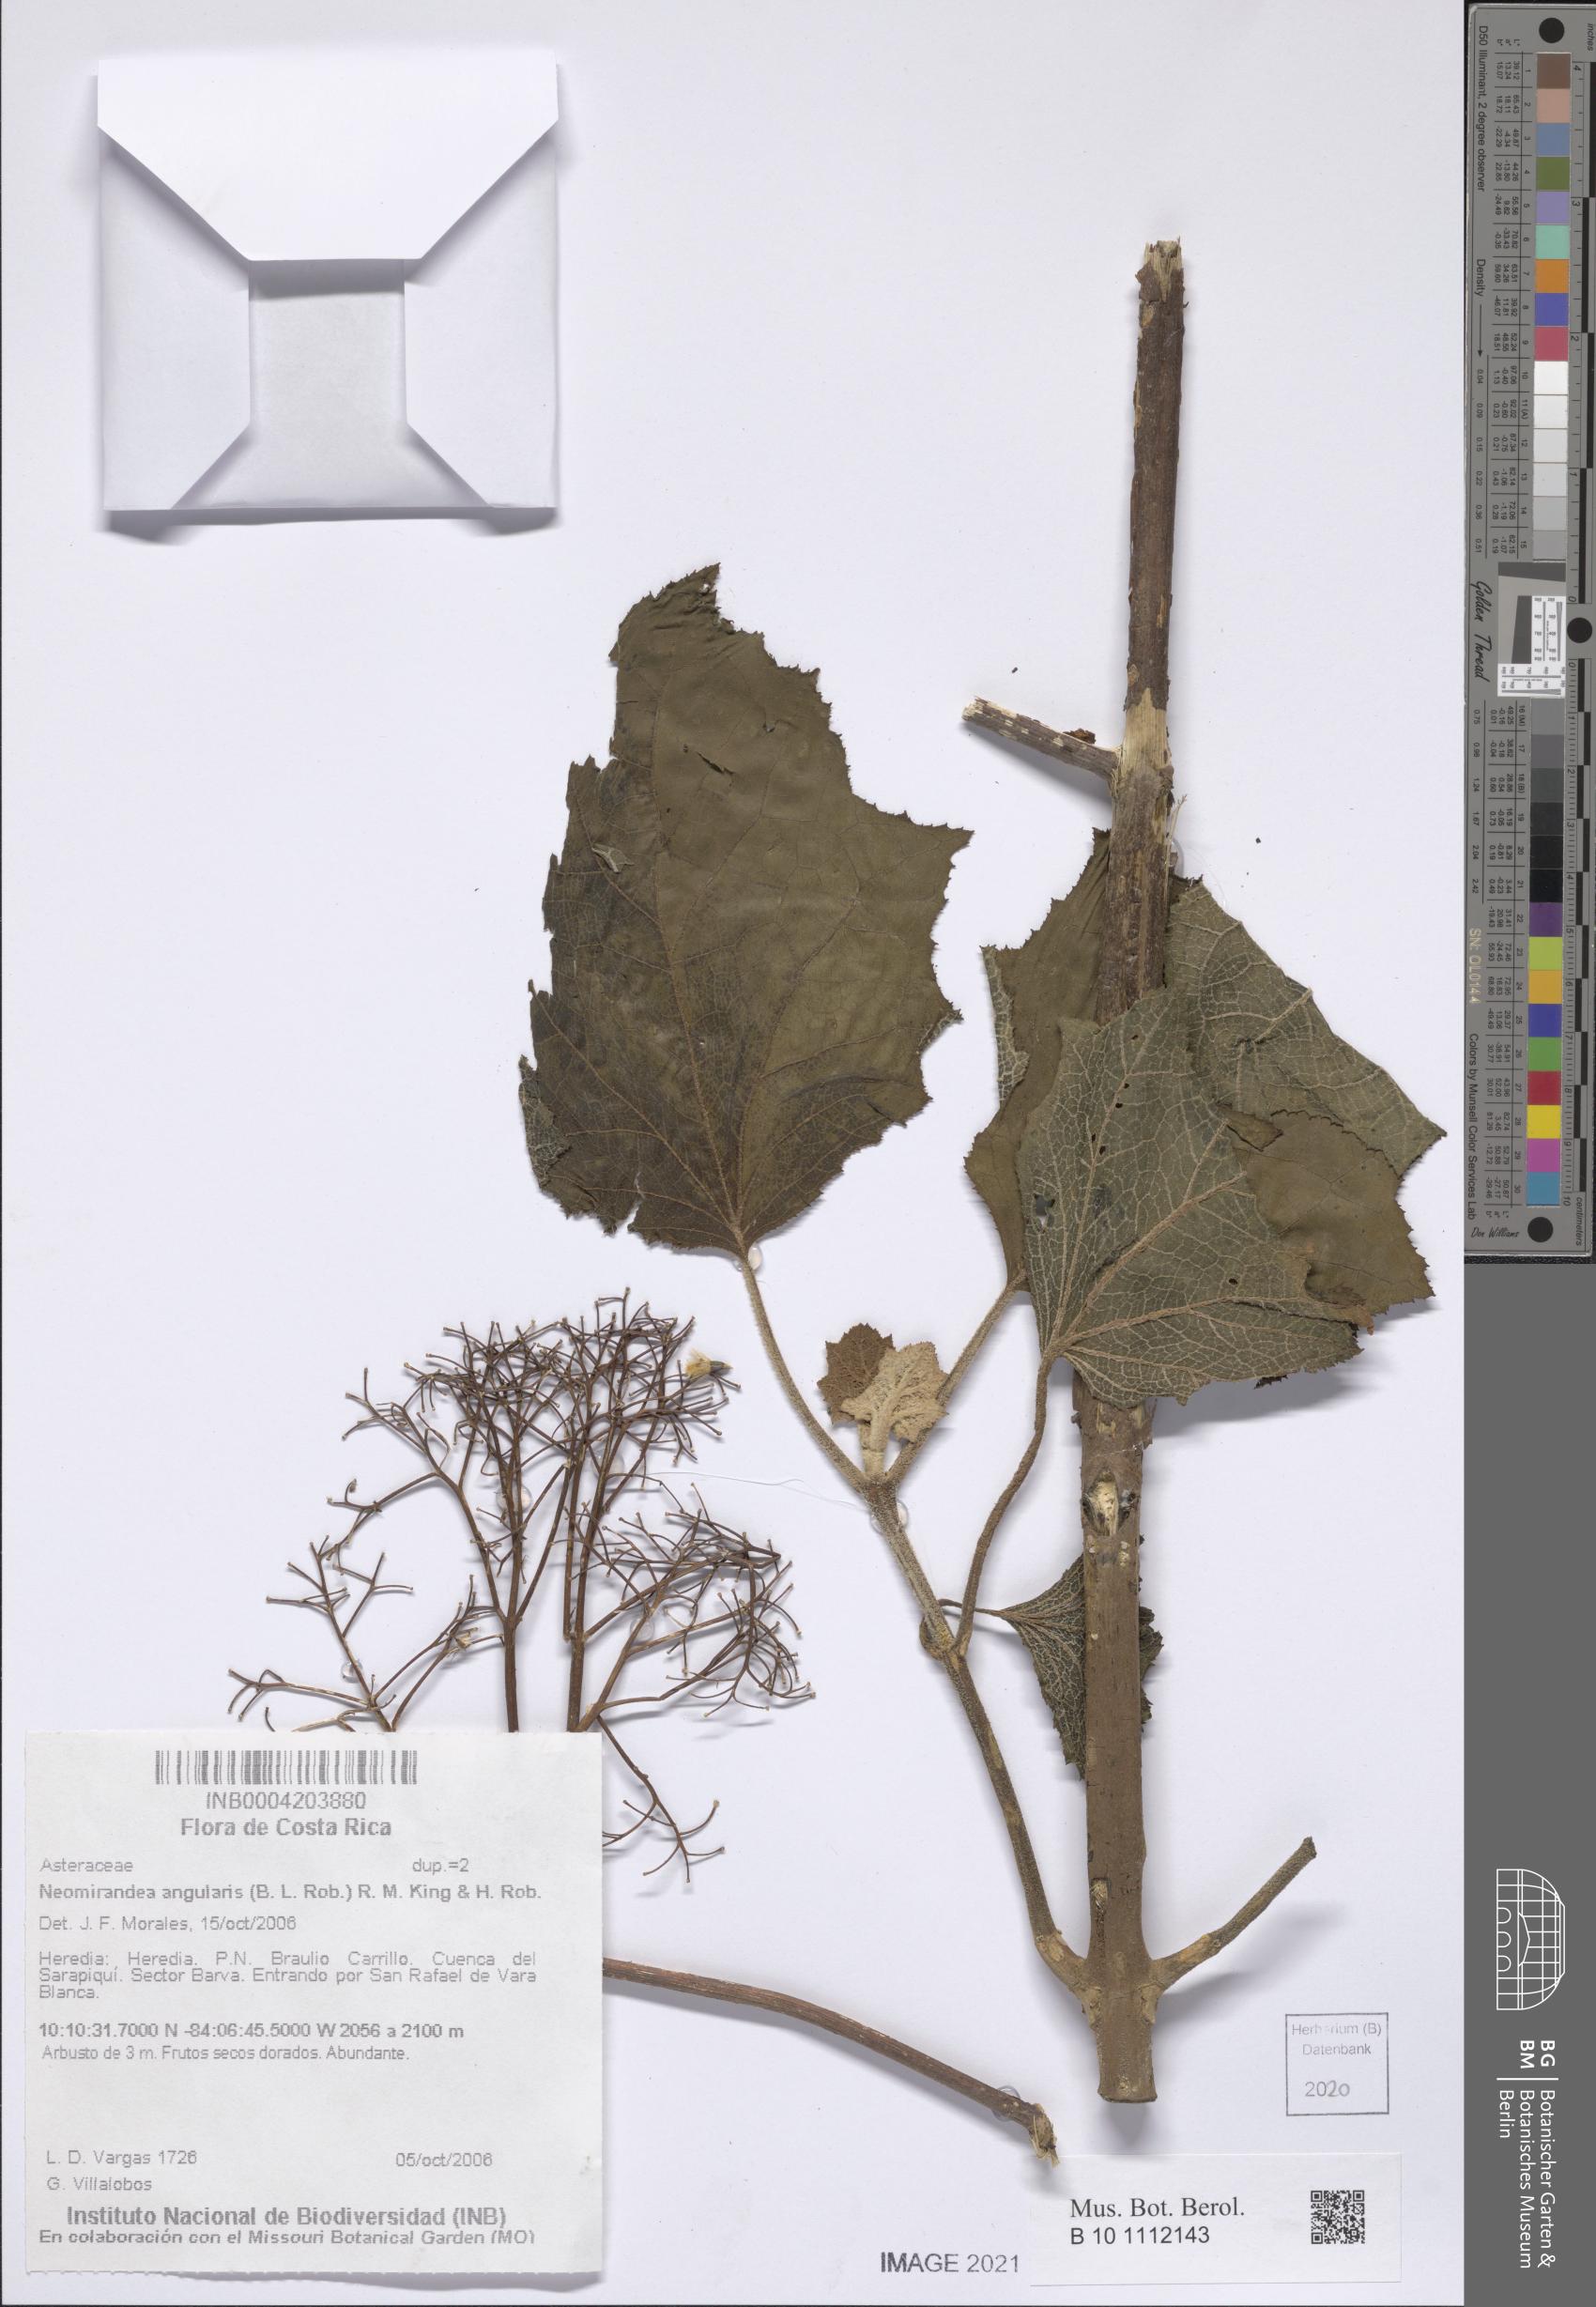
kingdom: Plantae
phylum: Tracheophyta
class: Magnoliopsida
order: Asterales
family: Asteraceae
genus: Neomirandea
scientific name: Neomirandea angularis
